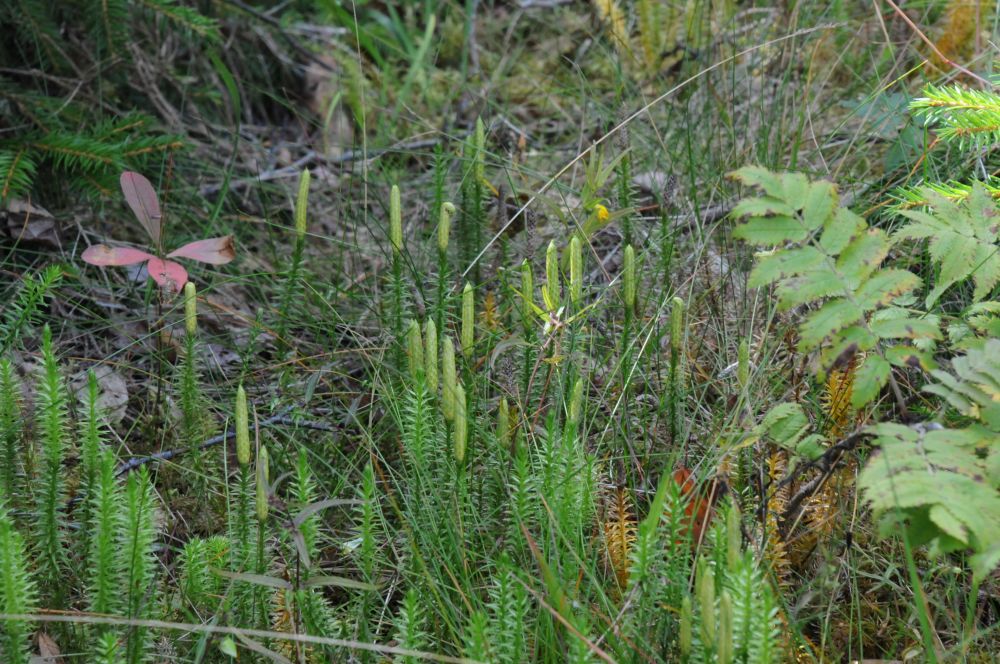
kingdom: Plantae
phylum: Tracheophyta
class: Lycopodiopsida
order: Lycopodiales
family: Lycopodiaceae
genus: Spinulum
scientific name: Spinulum annotinum
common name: Interrupted club-moss
